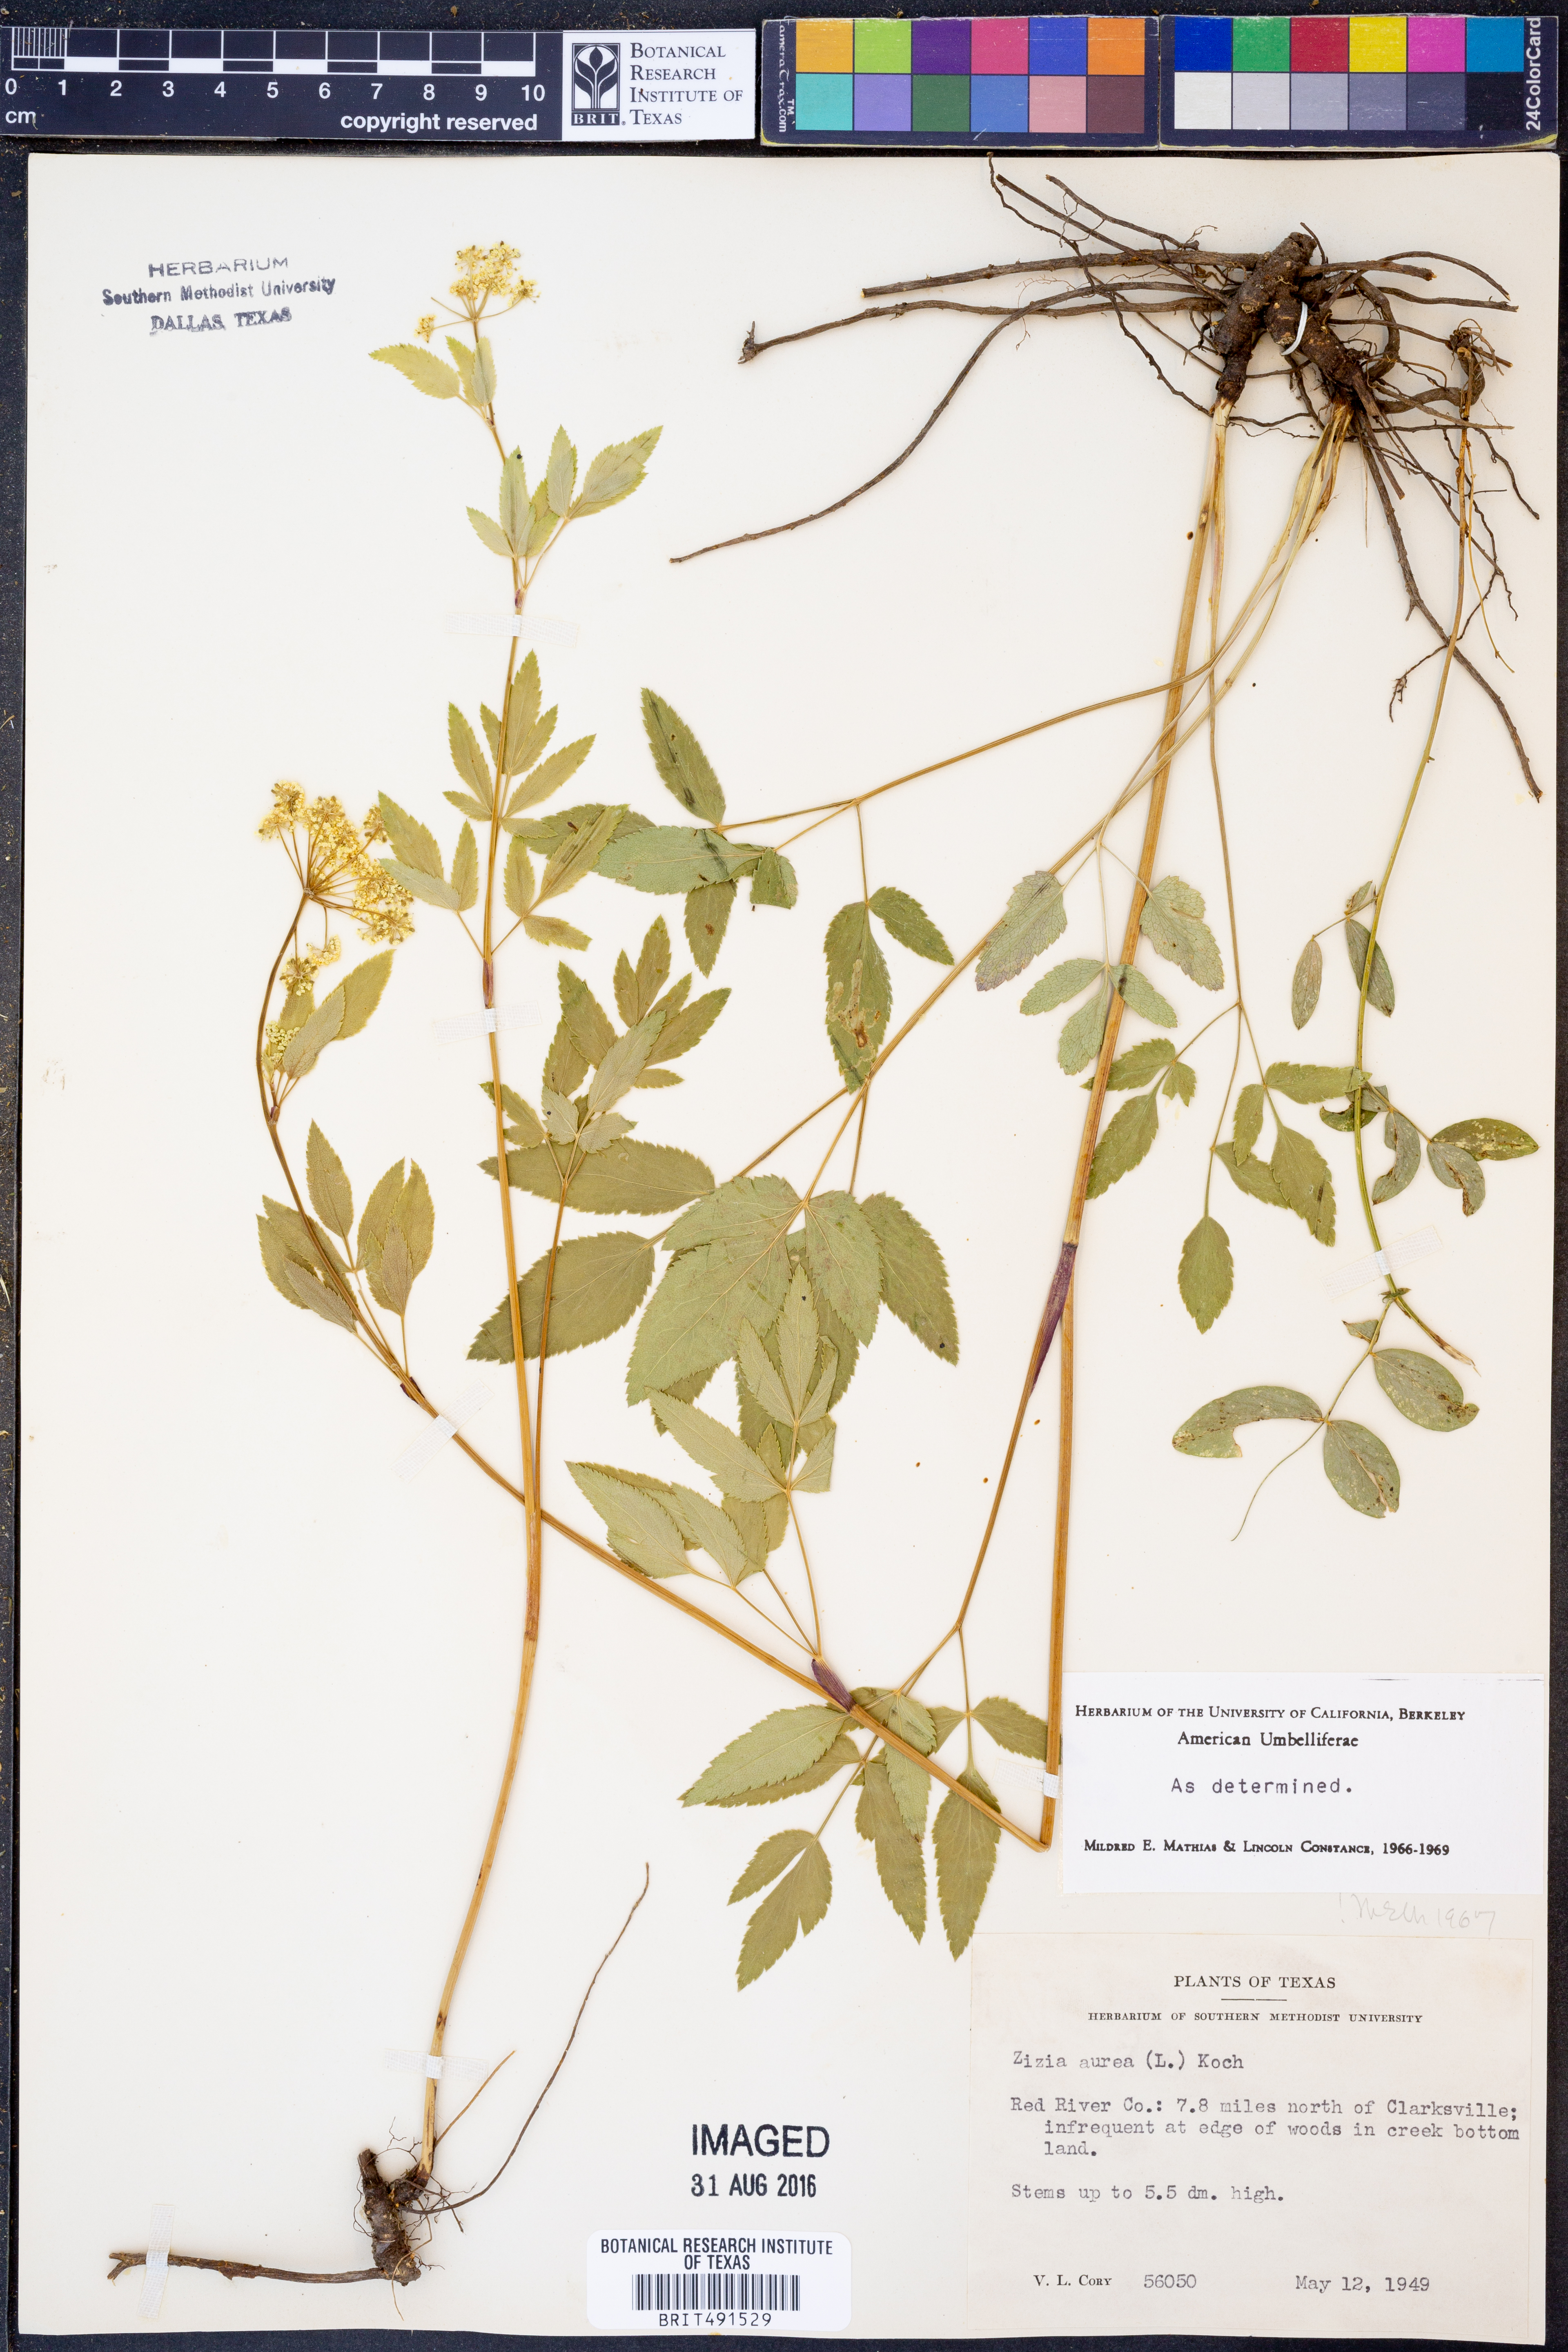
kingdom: Plantae
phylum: Tracheophyta
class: Magnoliopsida
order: Apiales
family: Apiaceae
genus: Zizia
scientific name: Zizia aurea
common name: Golden alexanders
